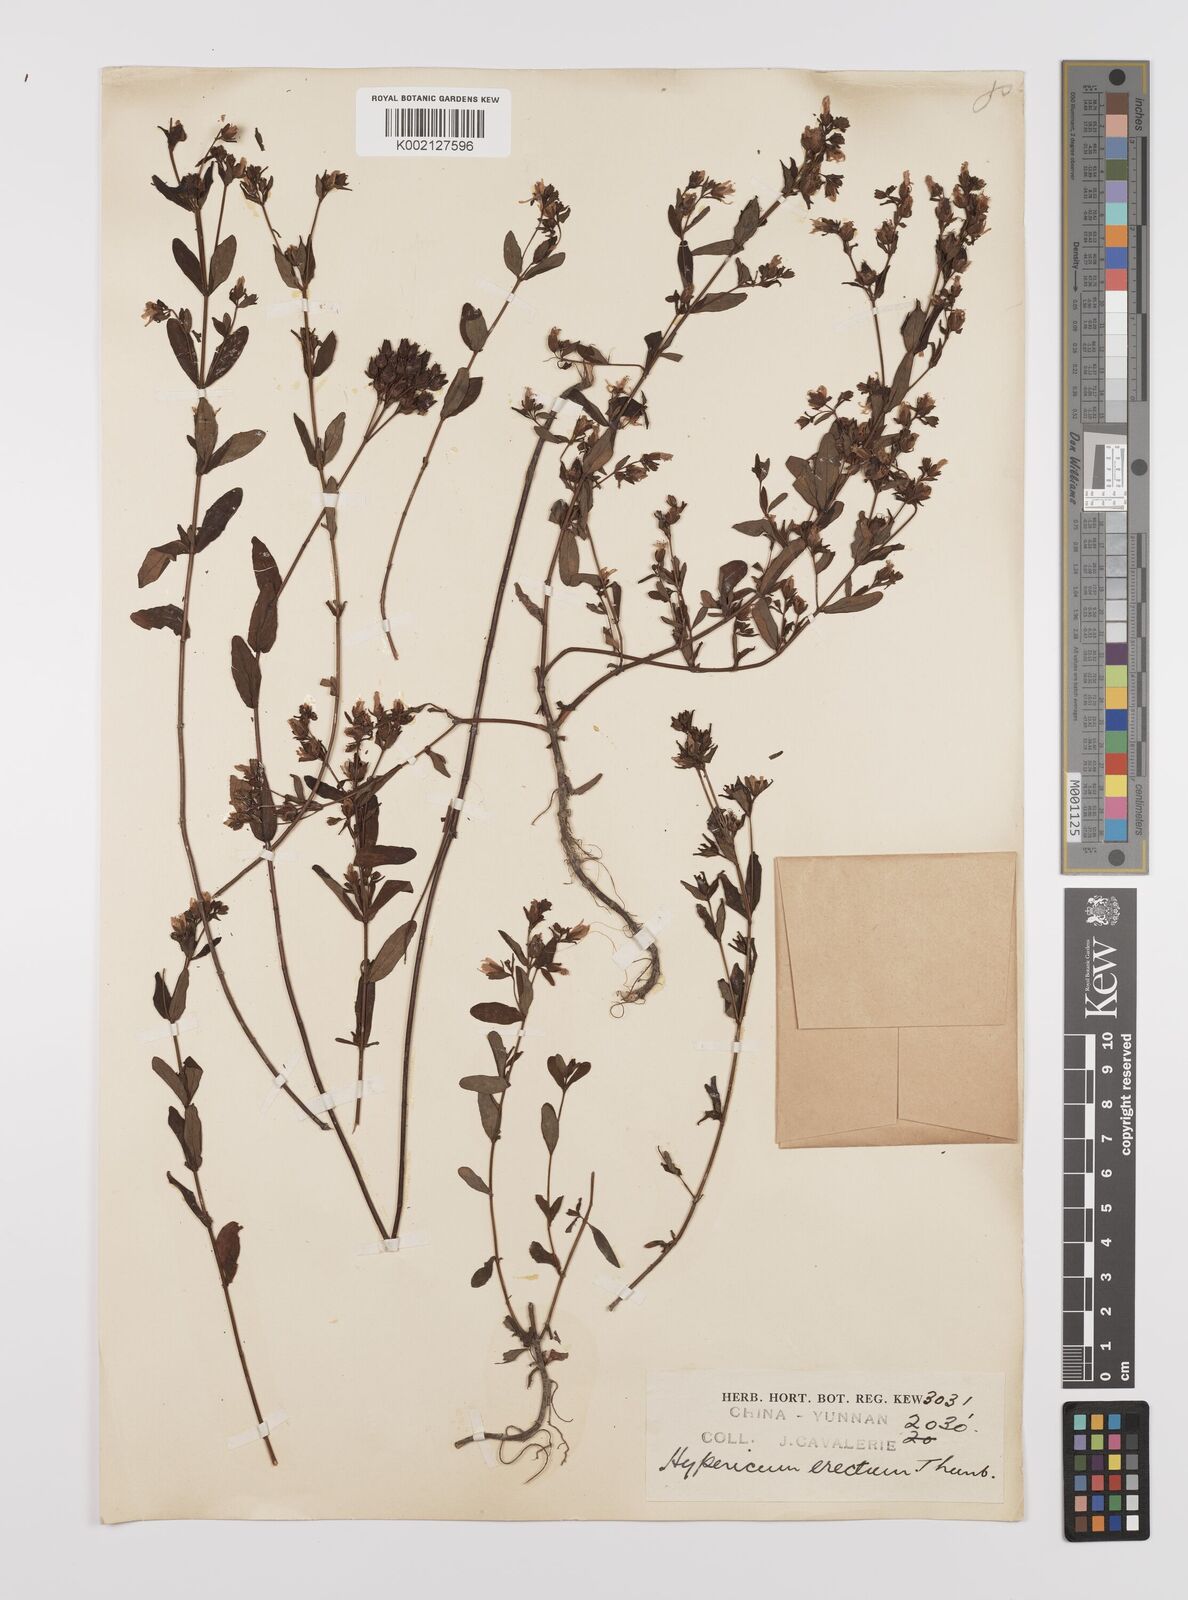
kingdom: Plantae
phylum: Tracheophyta
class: Magnoliopsida
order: Malpighiales
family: Hypericaceae
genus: Hypericum
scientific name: Hypericum petiolulatum
